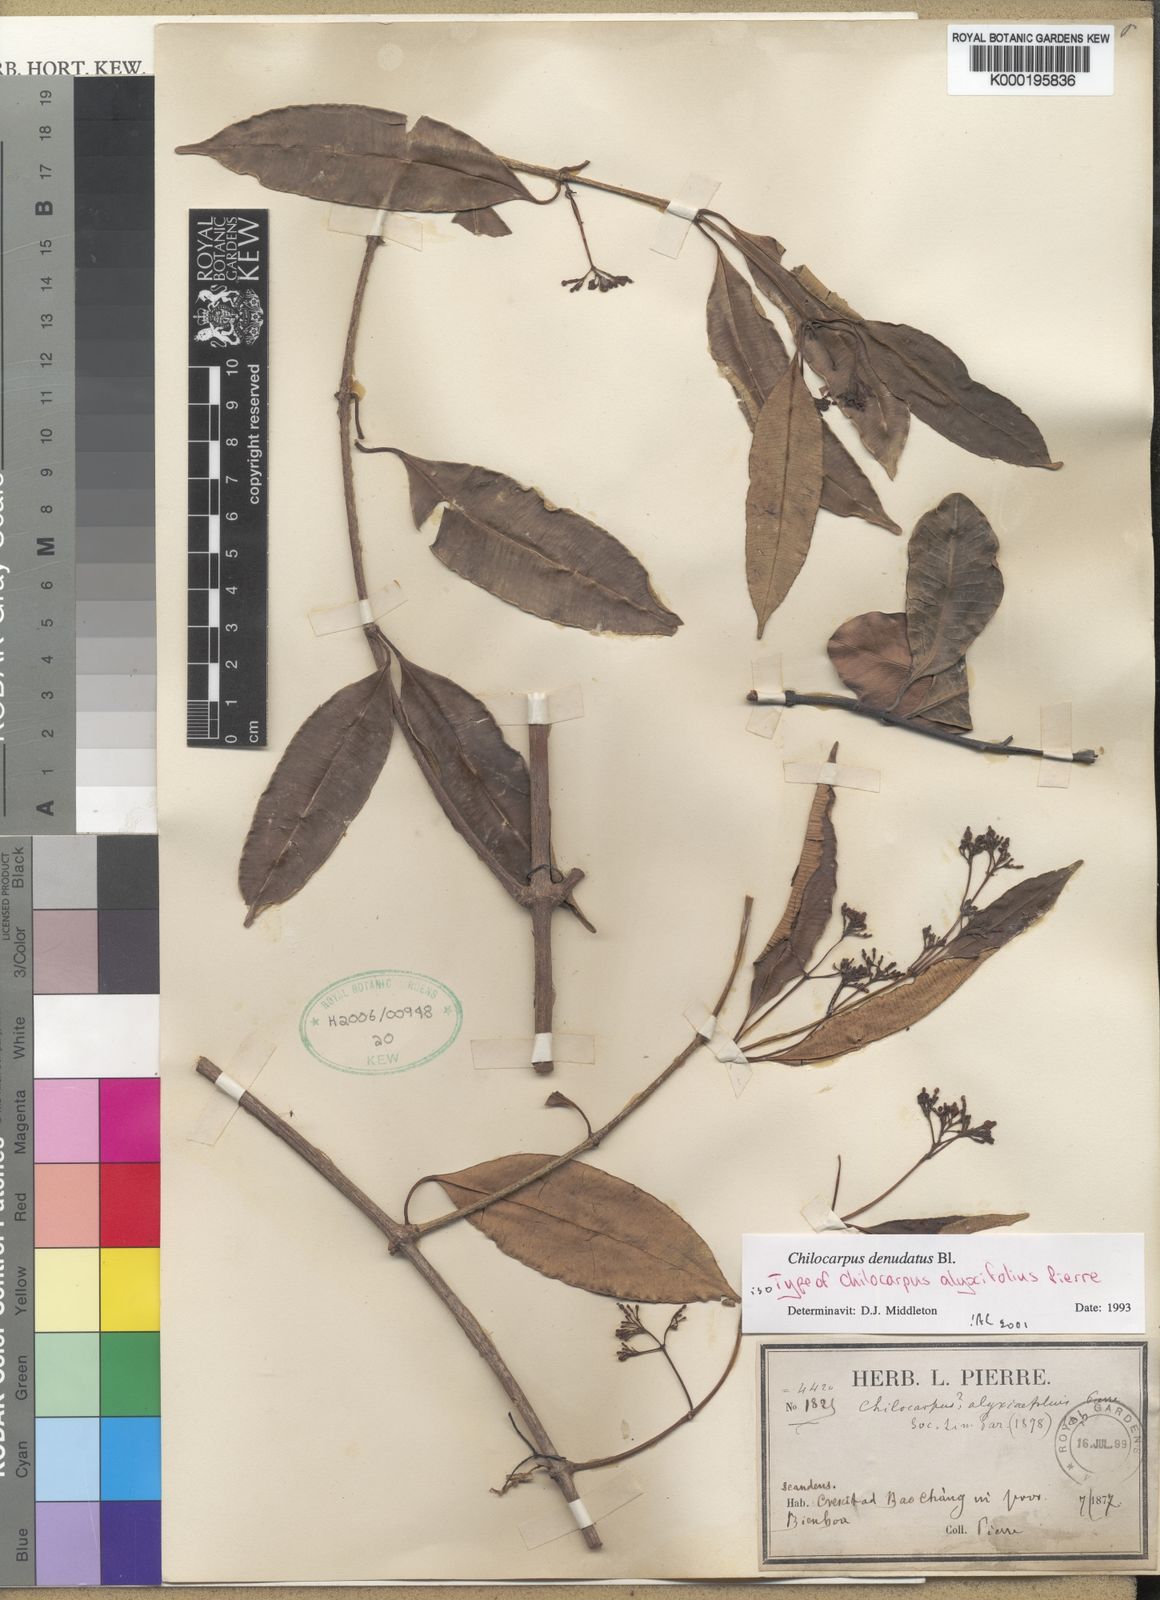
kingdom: Plantae
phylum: Tracheophyta
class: Magnoliopsida
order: Gentianales
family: Apocynaceae
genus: Chilocarpus
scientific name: Chilocarpus denudatus
